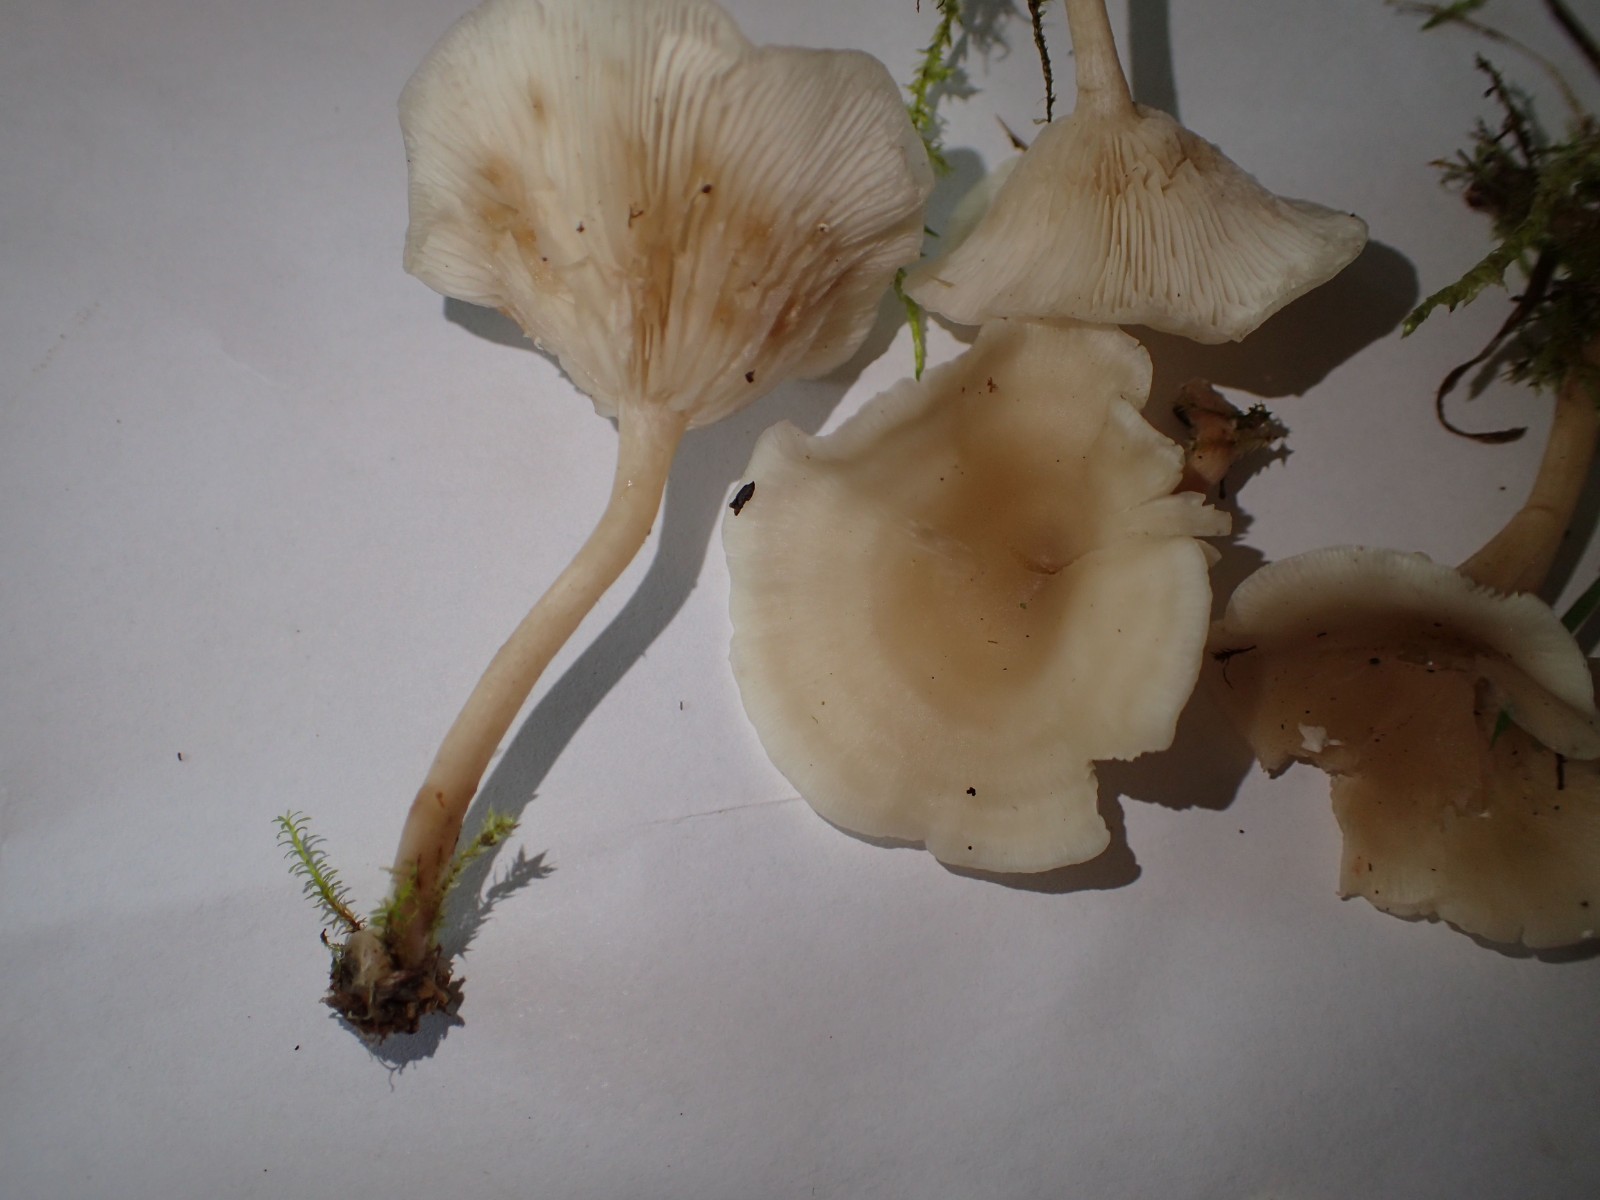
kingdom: Fungi
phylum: Basidiomycota
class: Agaricomycetes
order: Agaricales
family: Tricholomataceae
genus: Clitocybe
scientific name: Clitocybe
